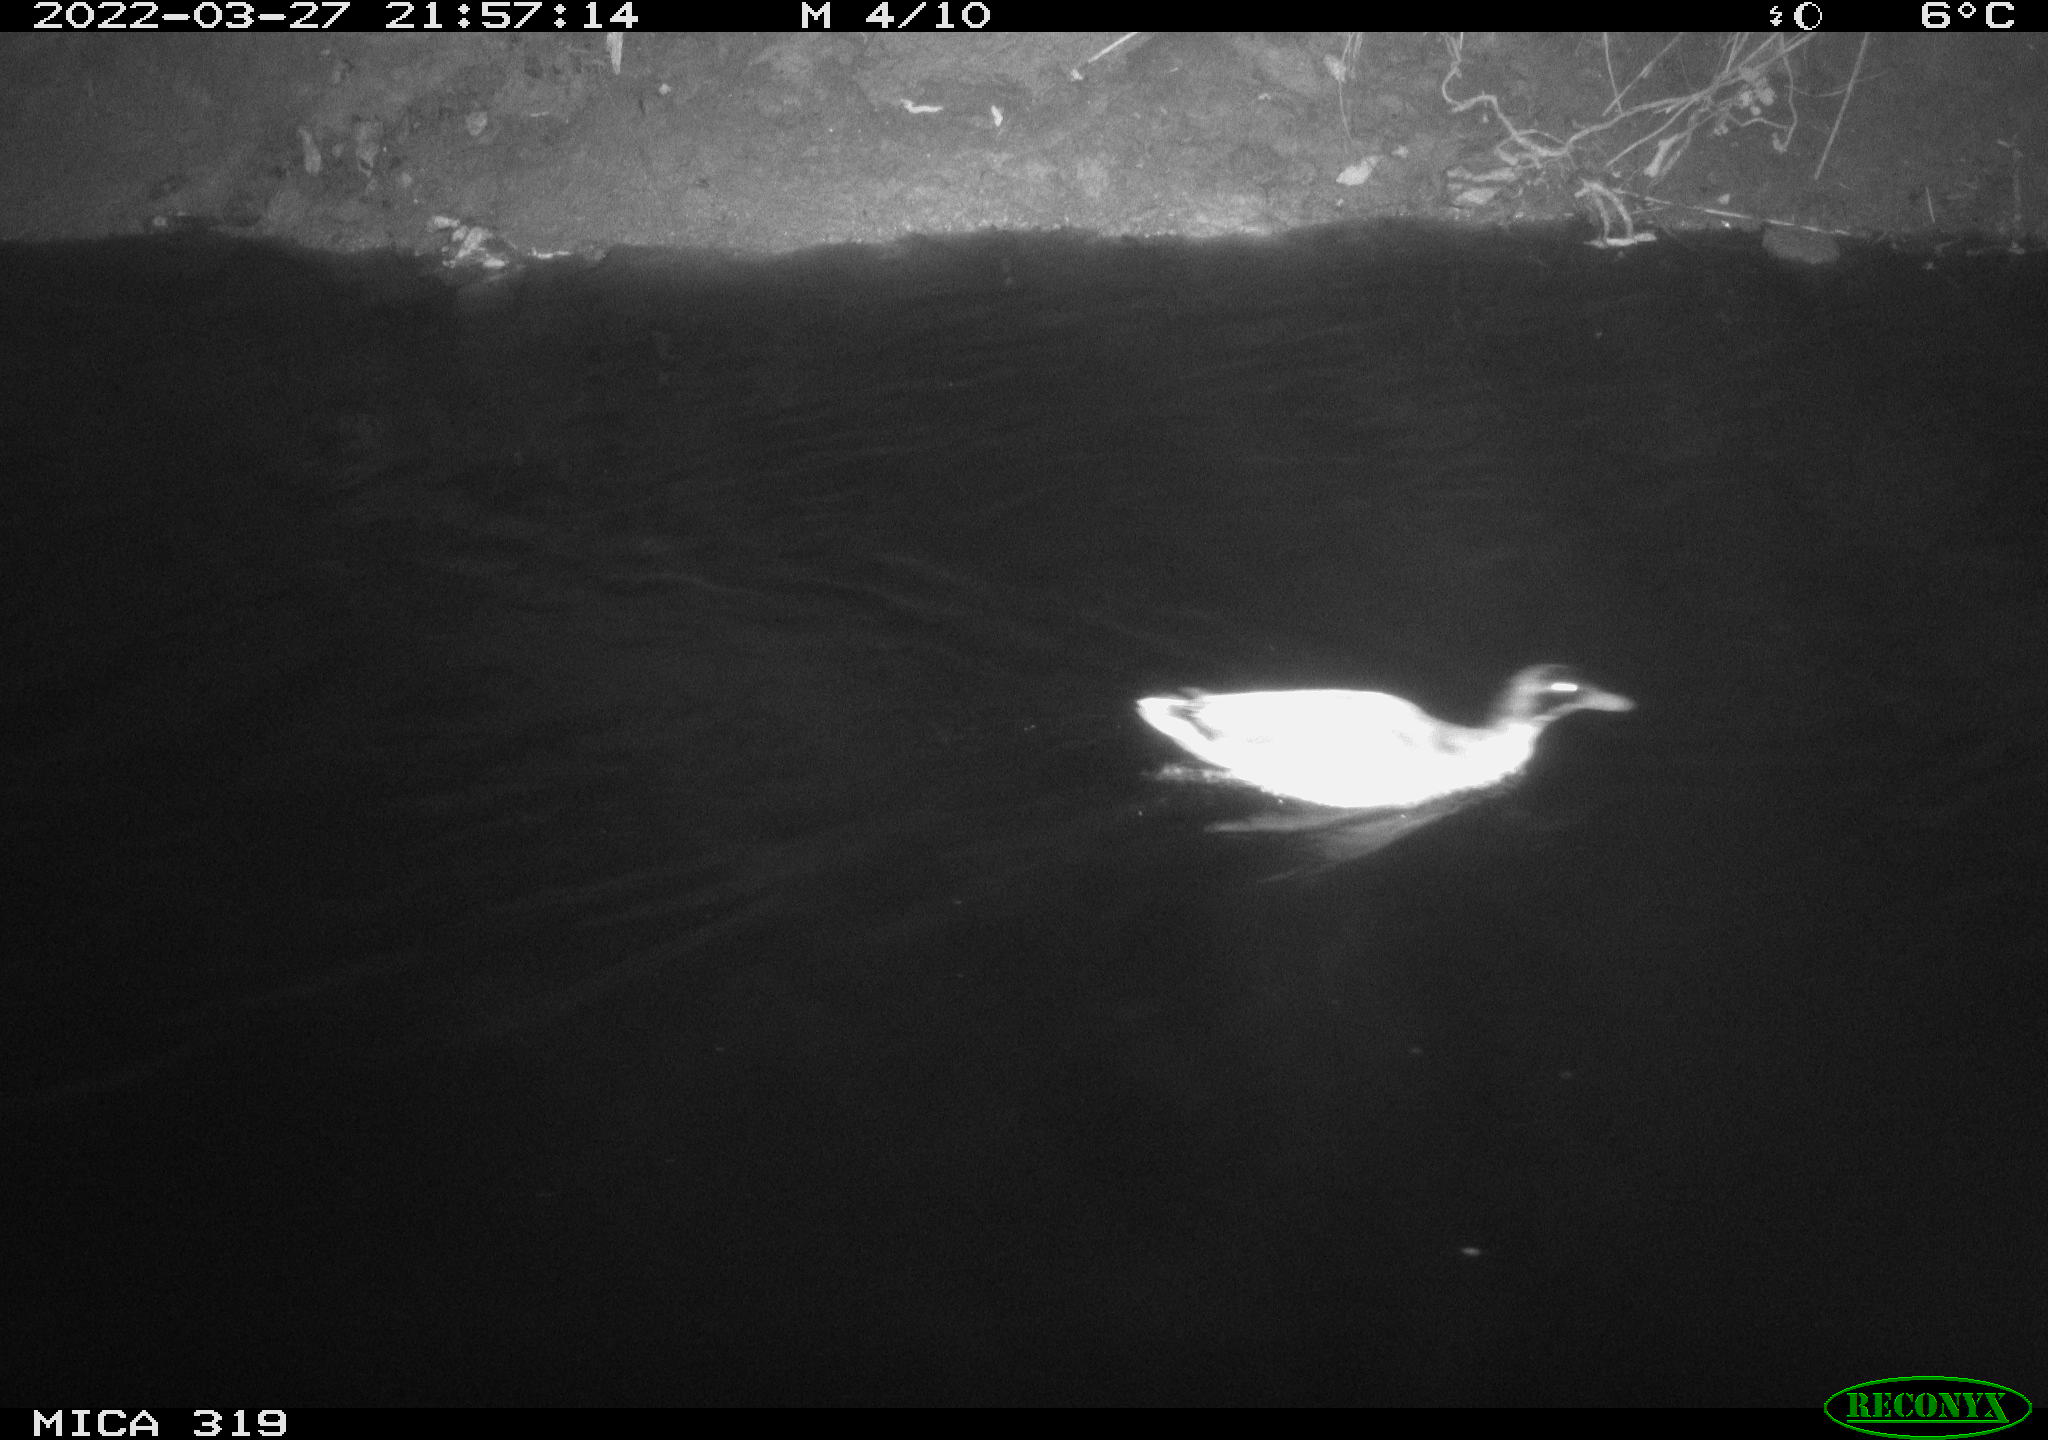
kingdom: Animalia
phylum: Chordata
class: Aves
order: Anseriformes
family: Anatidae
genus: Anas
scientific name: Anas platyrhynchos
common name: Mallard
